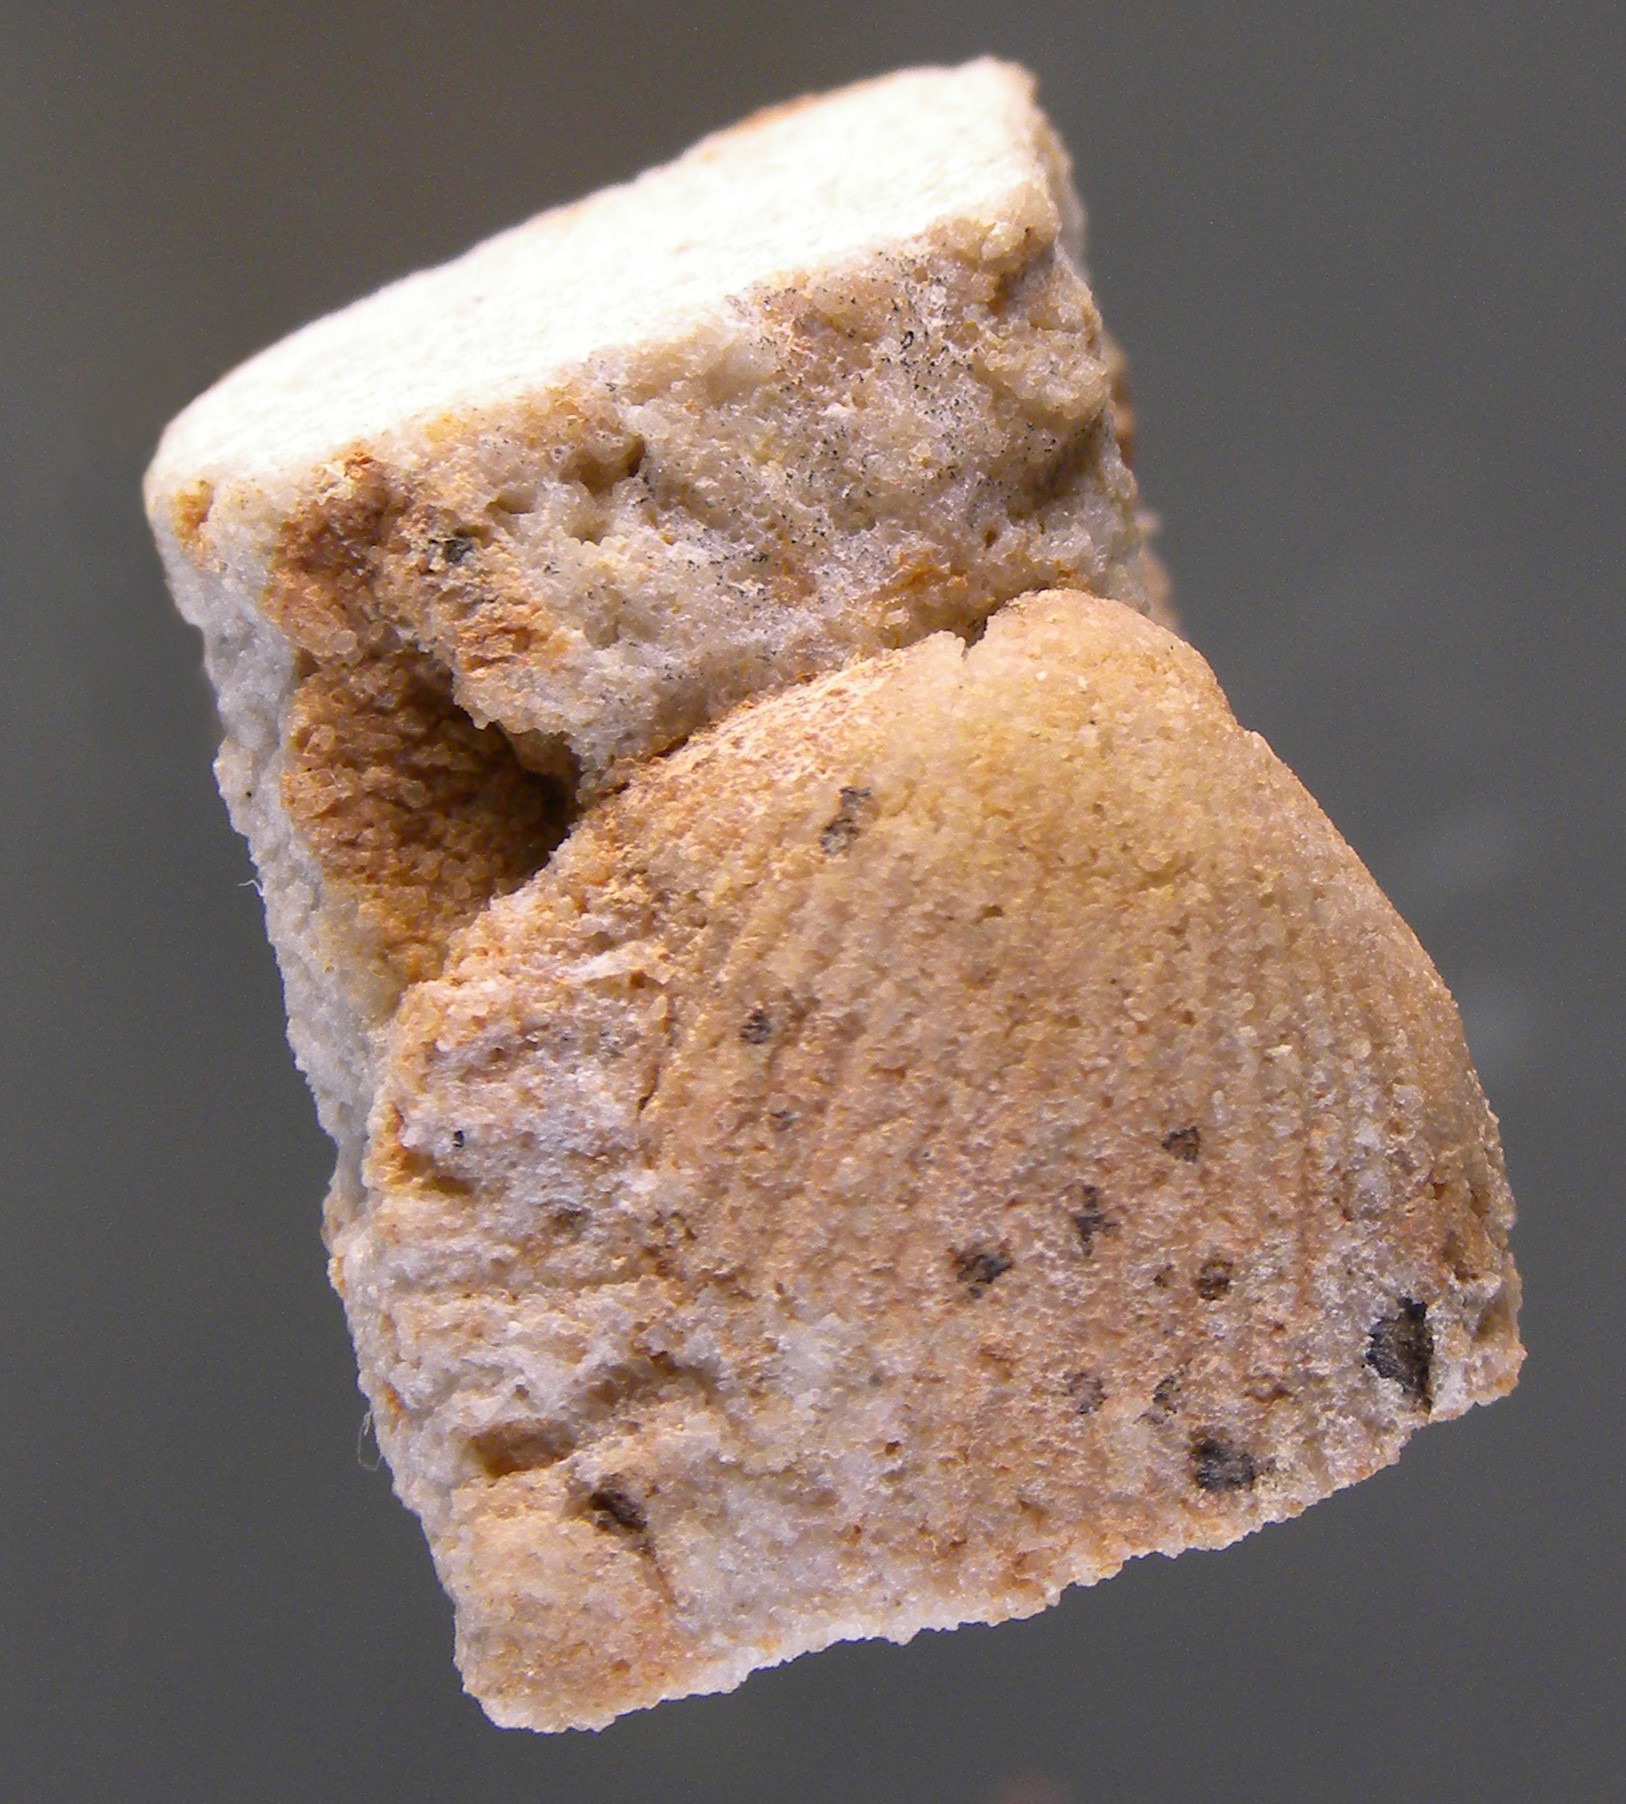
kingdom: Animalia
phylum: Brachiopoda
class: Rhynchonellata
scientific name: Rhynchonellata
